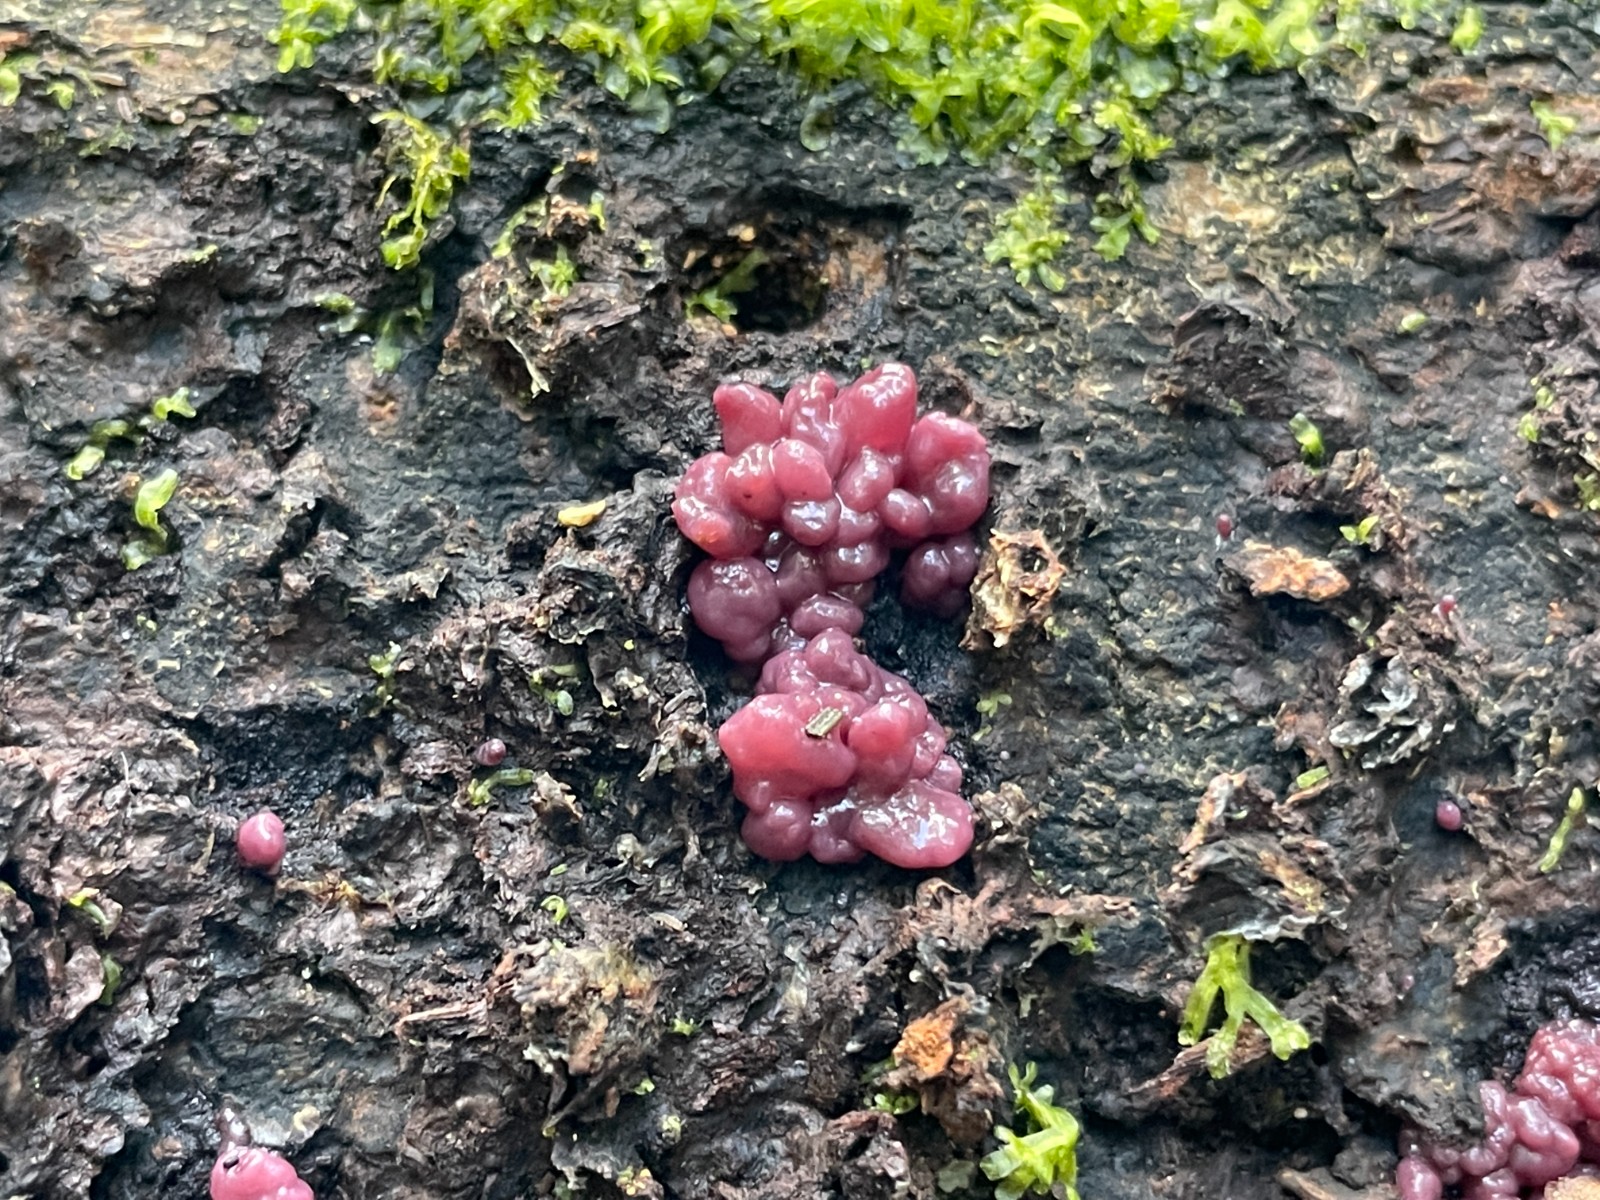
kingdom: Fungi
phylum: Ascomycota
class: Leotiomycetes
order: Helotiales
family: Gelatinodiscaceae
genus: Ascocoryne
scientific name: Ascocoryne sarcoides
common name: rødlilla sejskive
